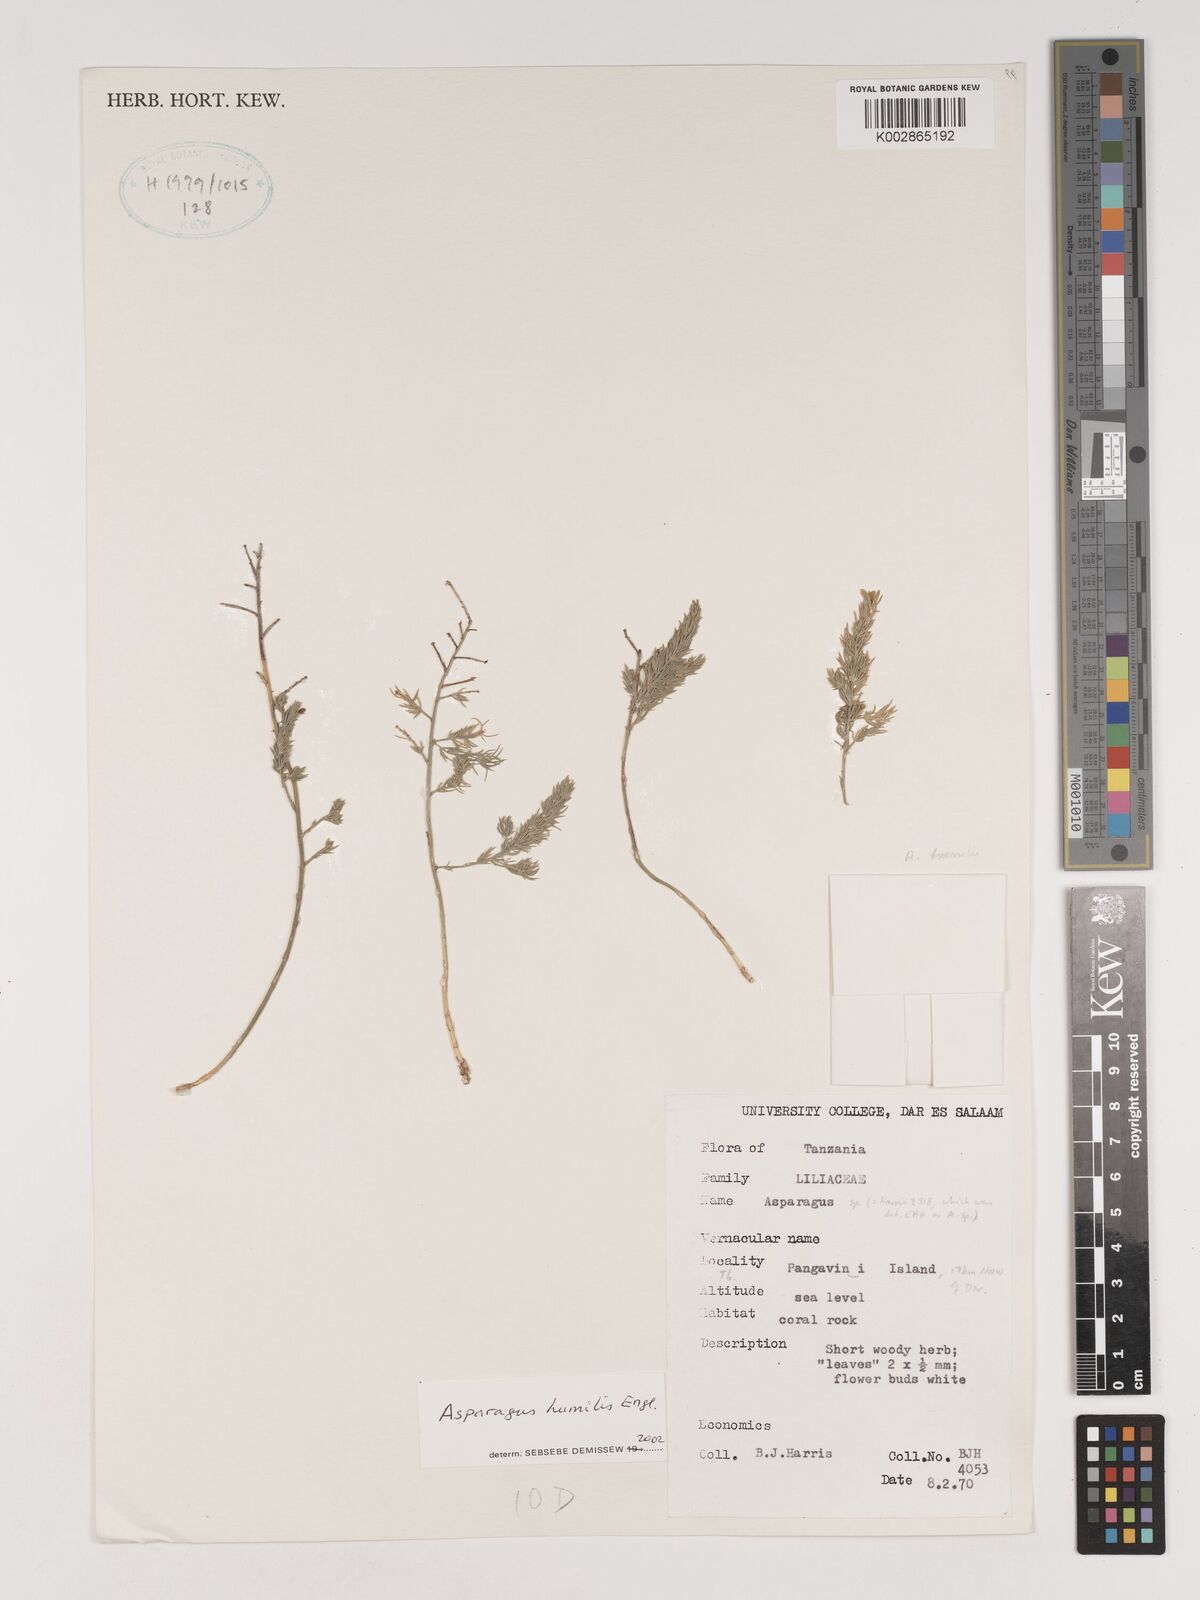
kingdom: Plantae
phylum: Tracheophyta
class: Liliopsida
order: Asparagales
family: Asparagaceae
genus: Asparagus
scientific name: Asparagus asparagoides
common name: African asparagus fern
